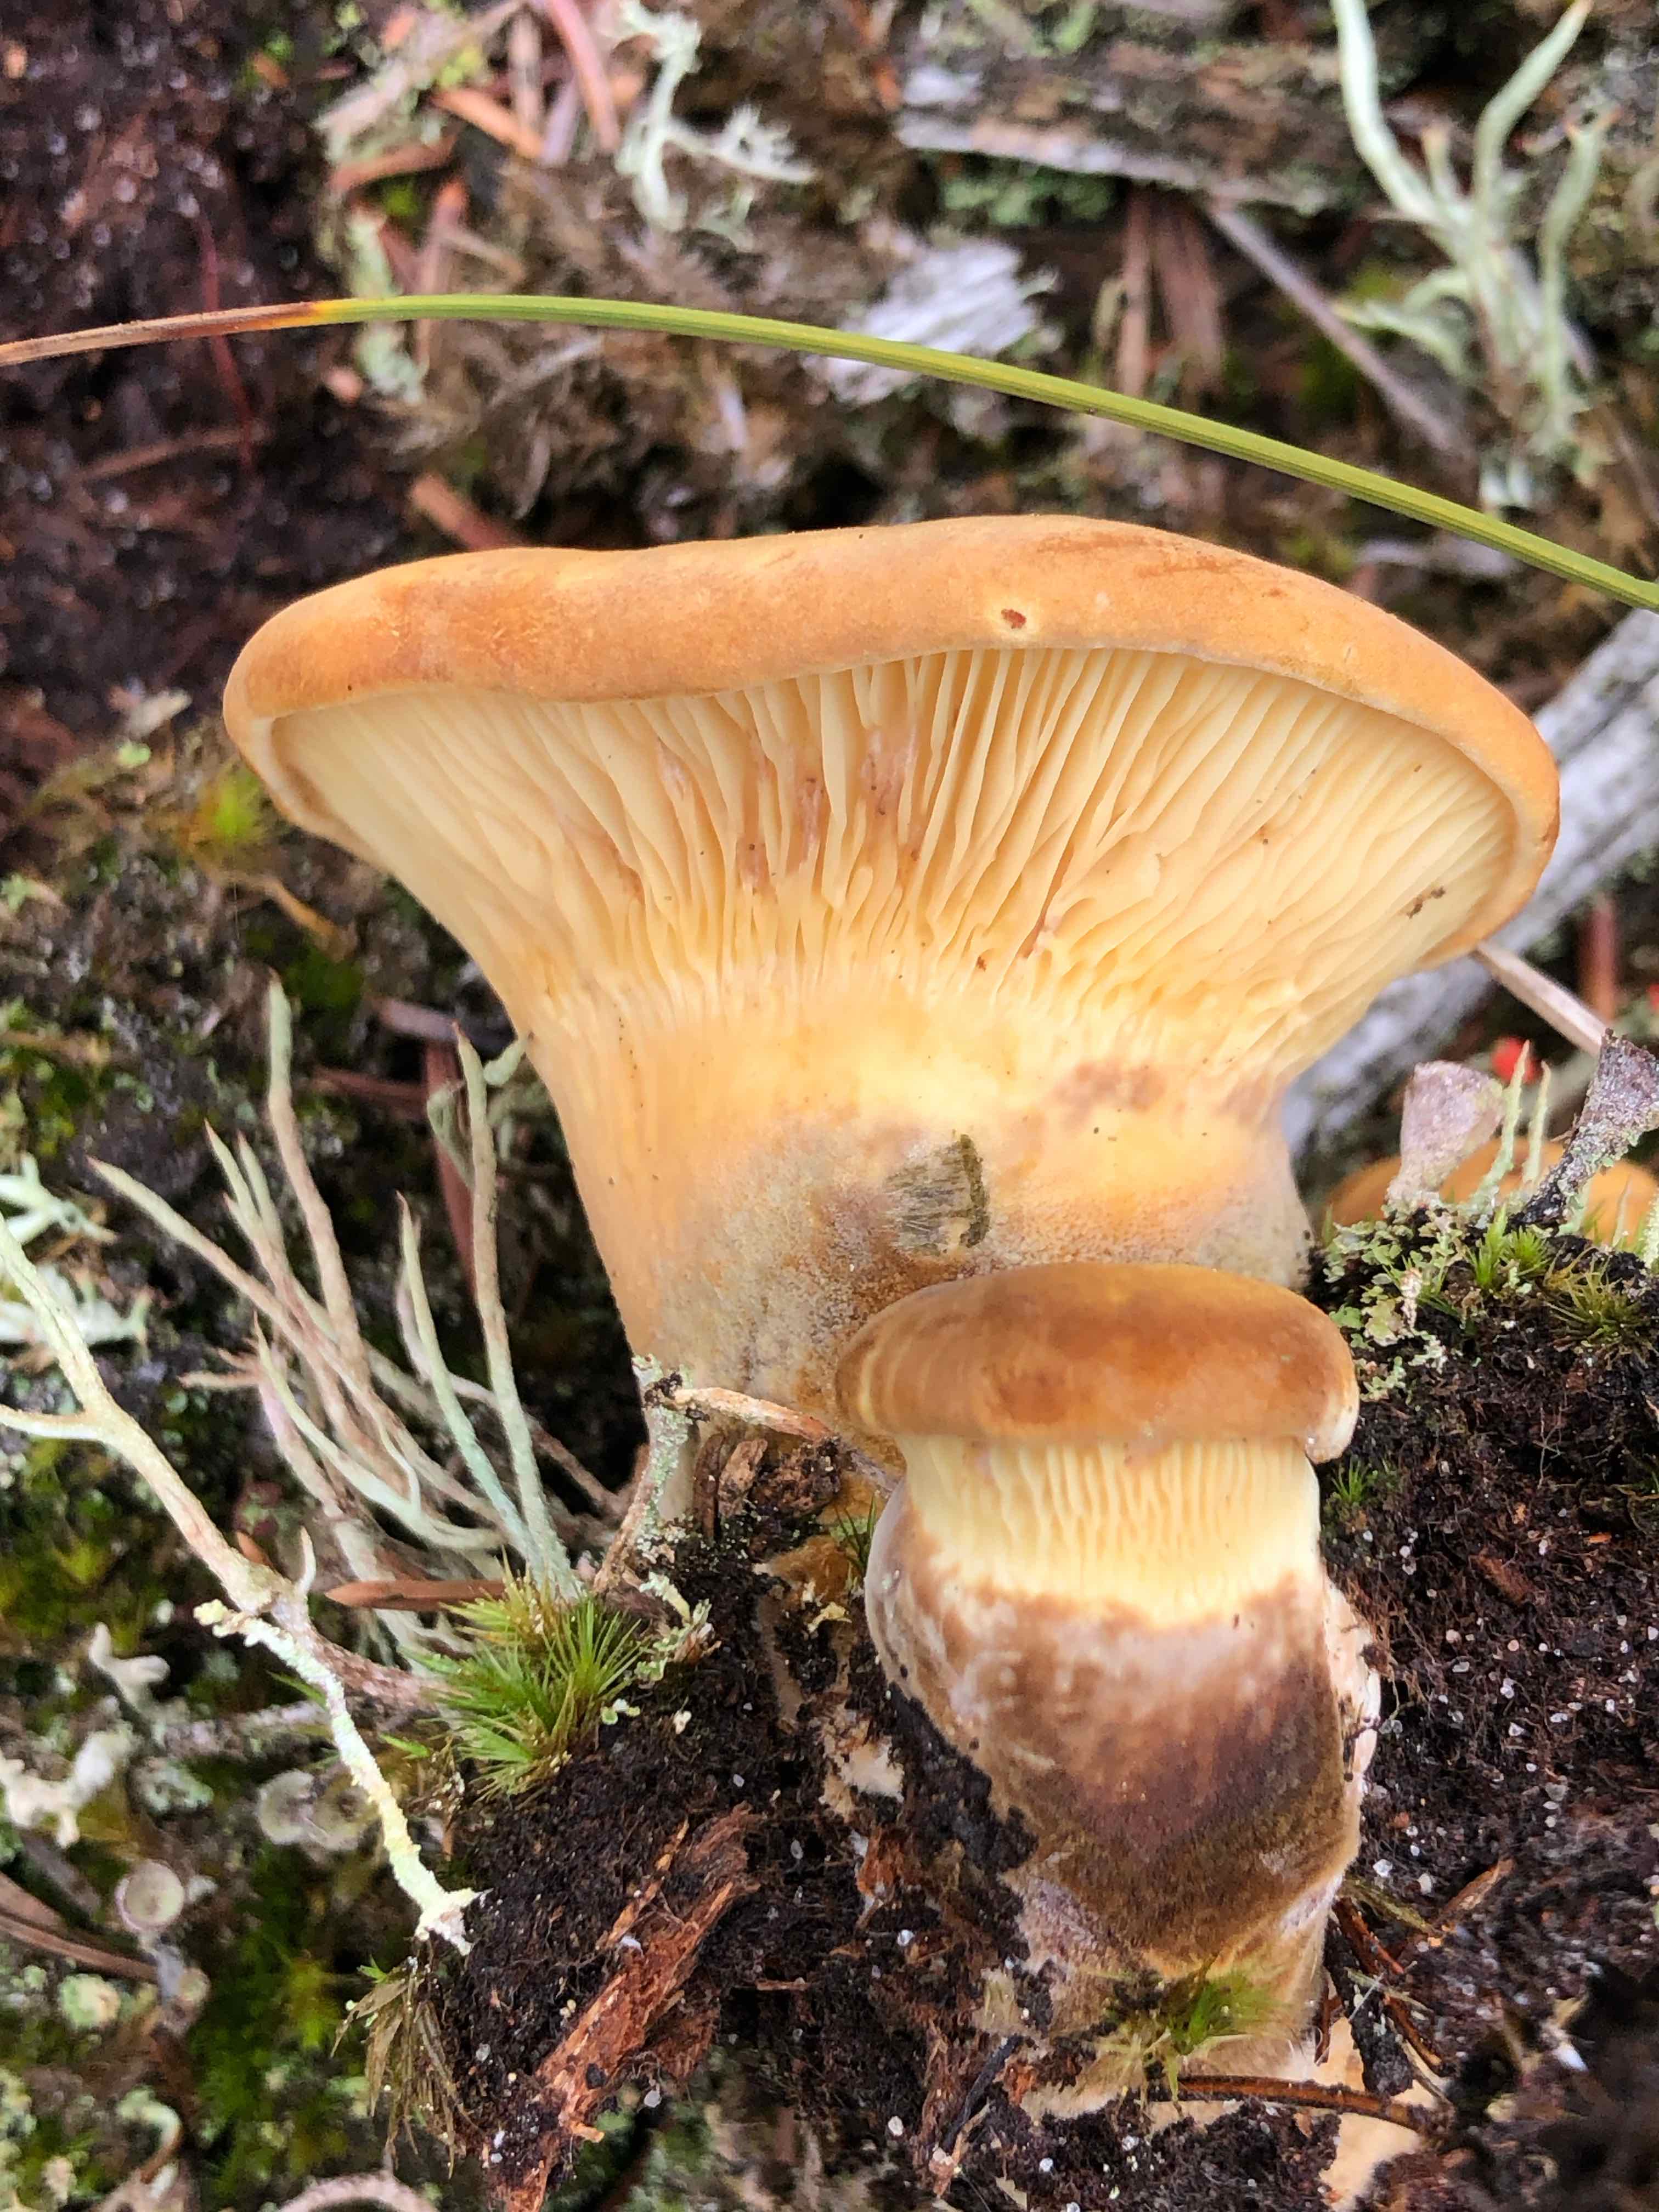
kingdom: Fungi
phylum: Basidiomycota
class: Agaricomycetes
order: Boletales
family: Tapinellaceae
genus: Tapinella
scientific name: Tapinella atrotomentosa
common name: sortfiltet viftesvamp
